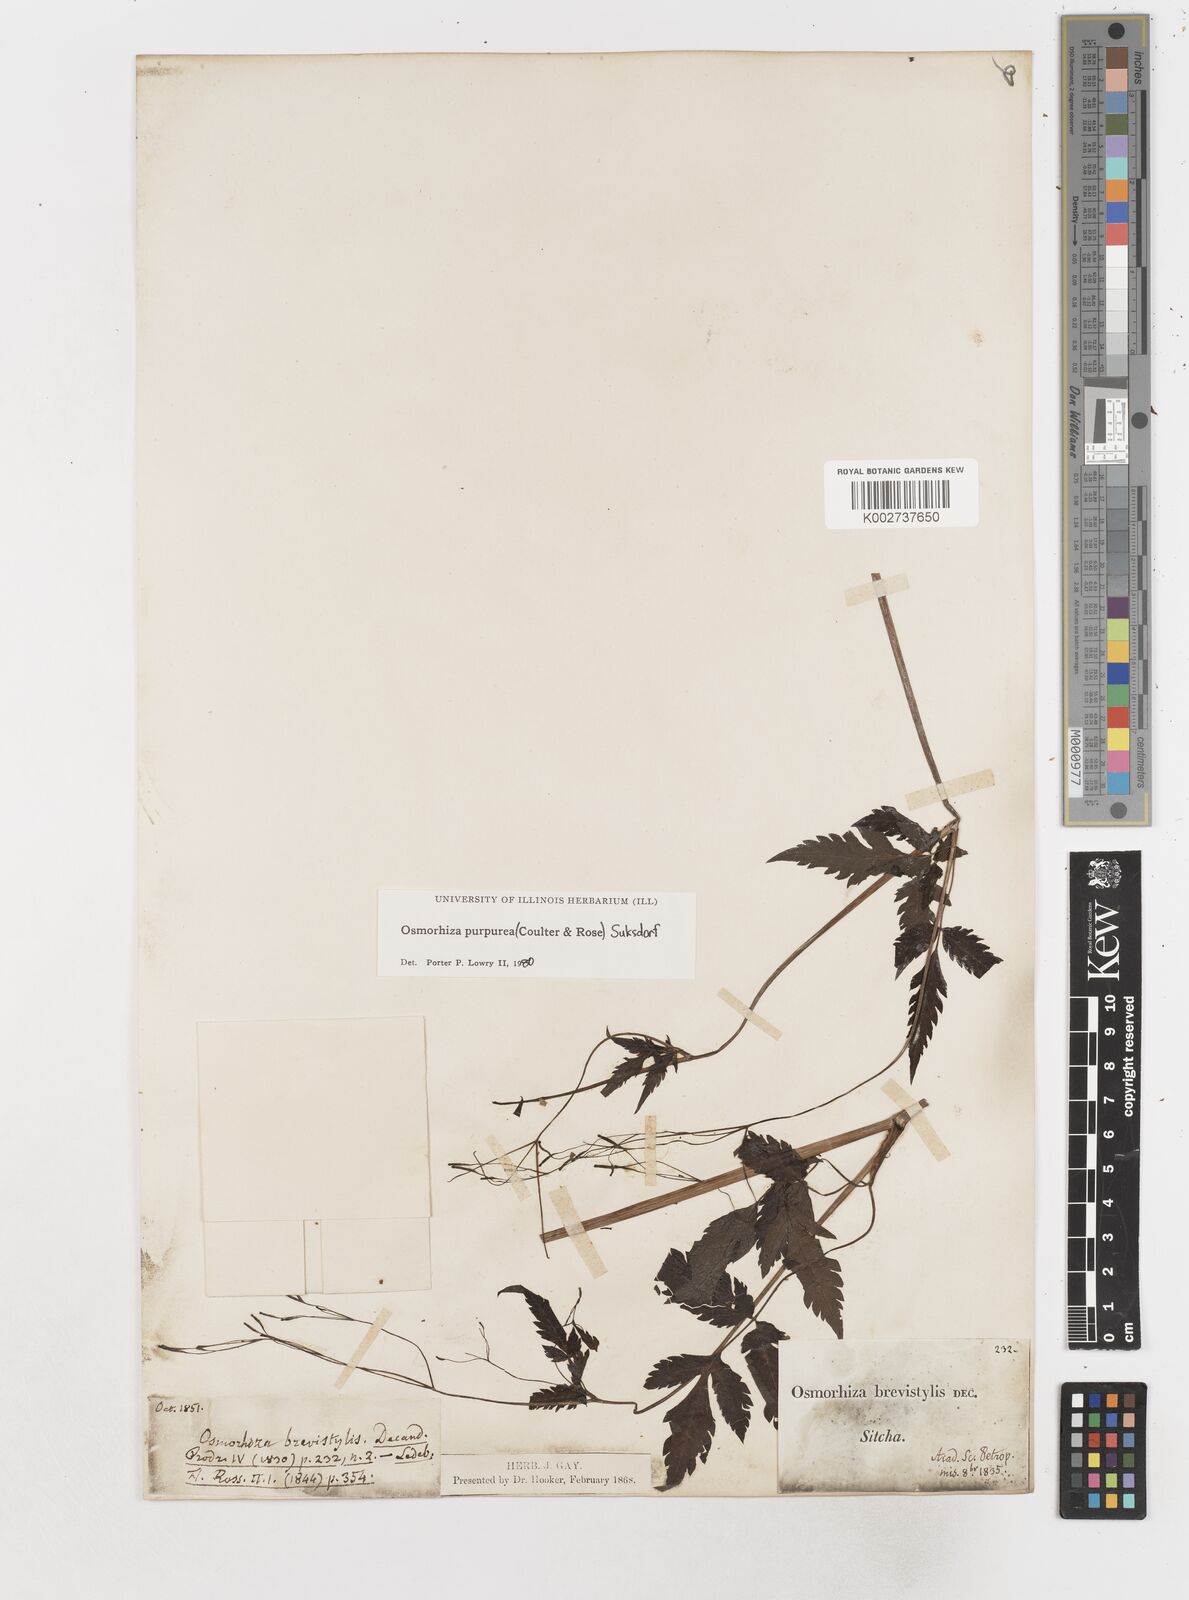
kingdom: Plantae
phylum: Tracheophyta
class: Magnoliopsida
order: Apiales
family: Apiaceae
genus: Osmorhiza
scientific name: Osmorhiza purpurea
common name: Purple sweet cicely
